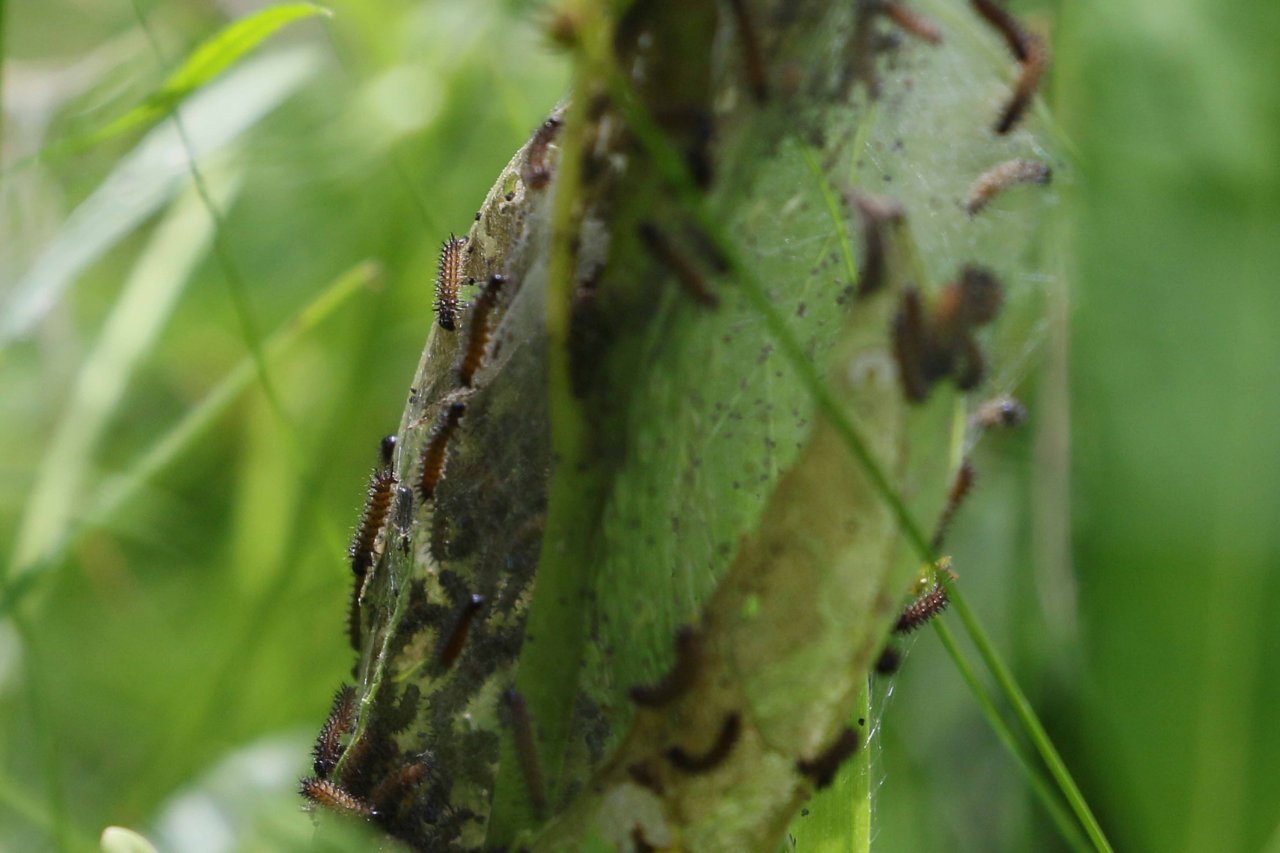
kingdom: Animalia
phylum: Arthropoda
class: Insecta
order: Lepidoptera
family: Nymphalidae
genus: Euphydryas
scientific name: Euphydryas phaeton
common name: Baltimore Checkerspot
